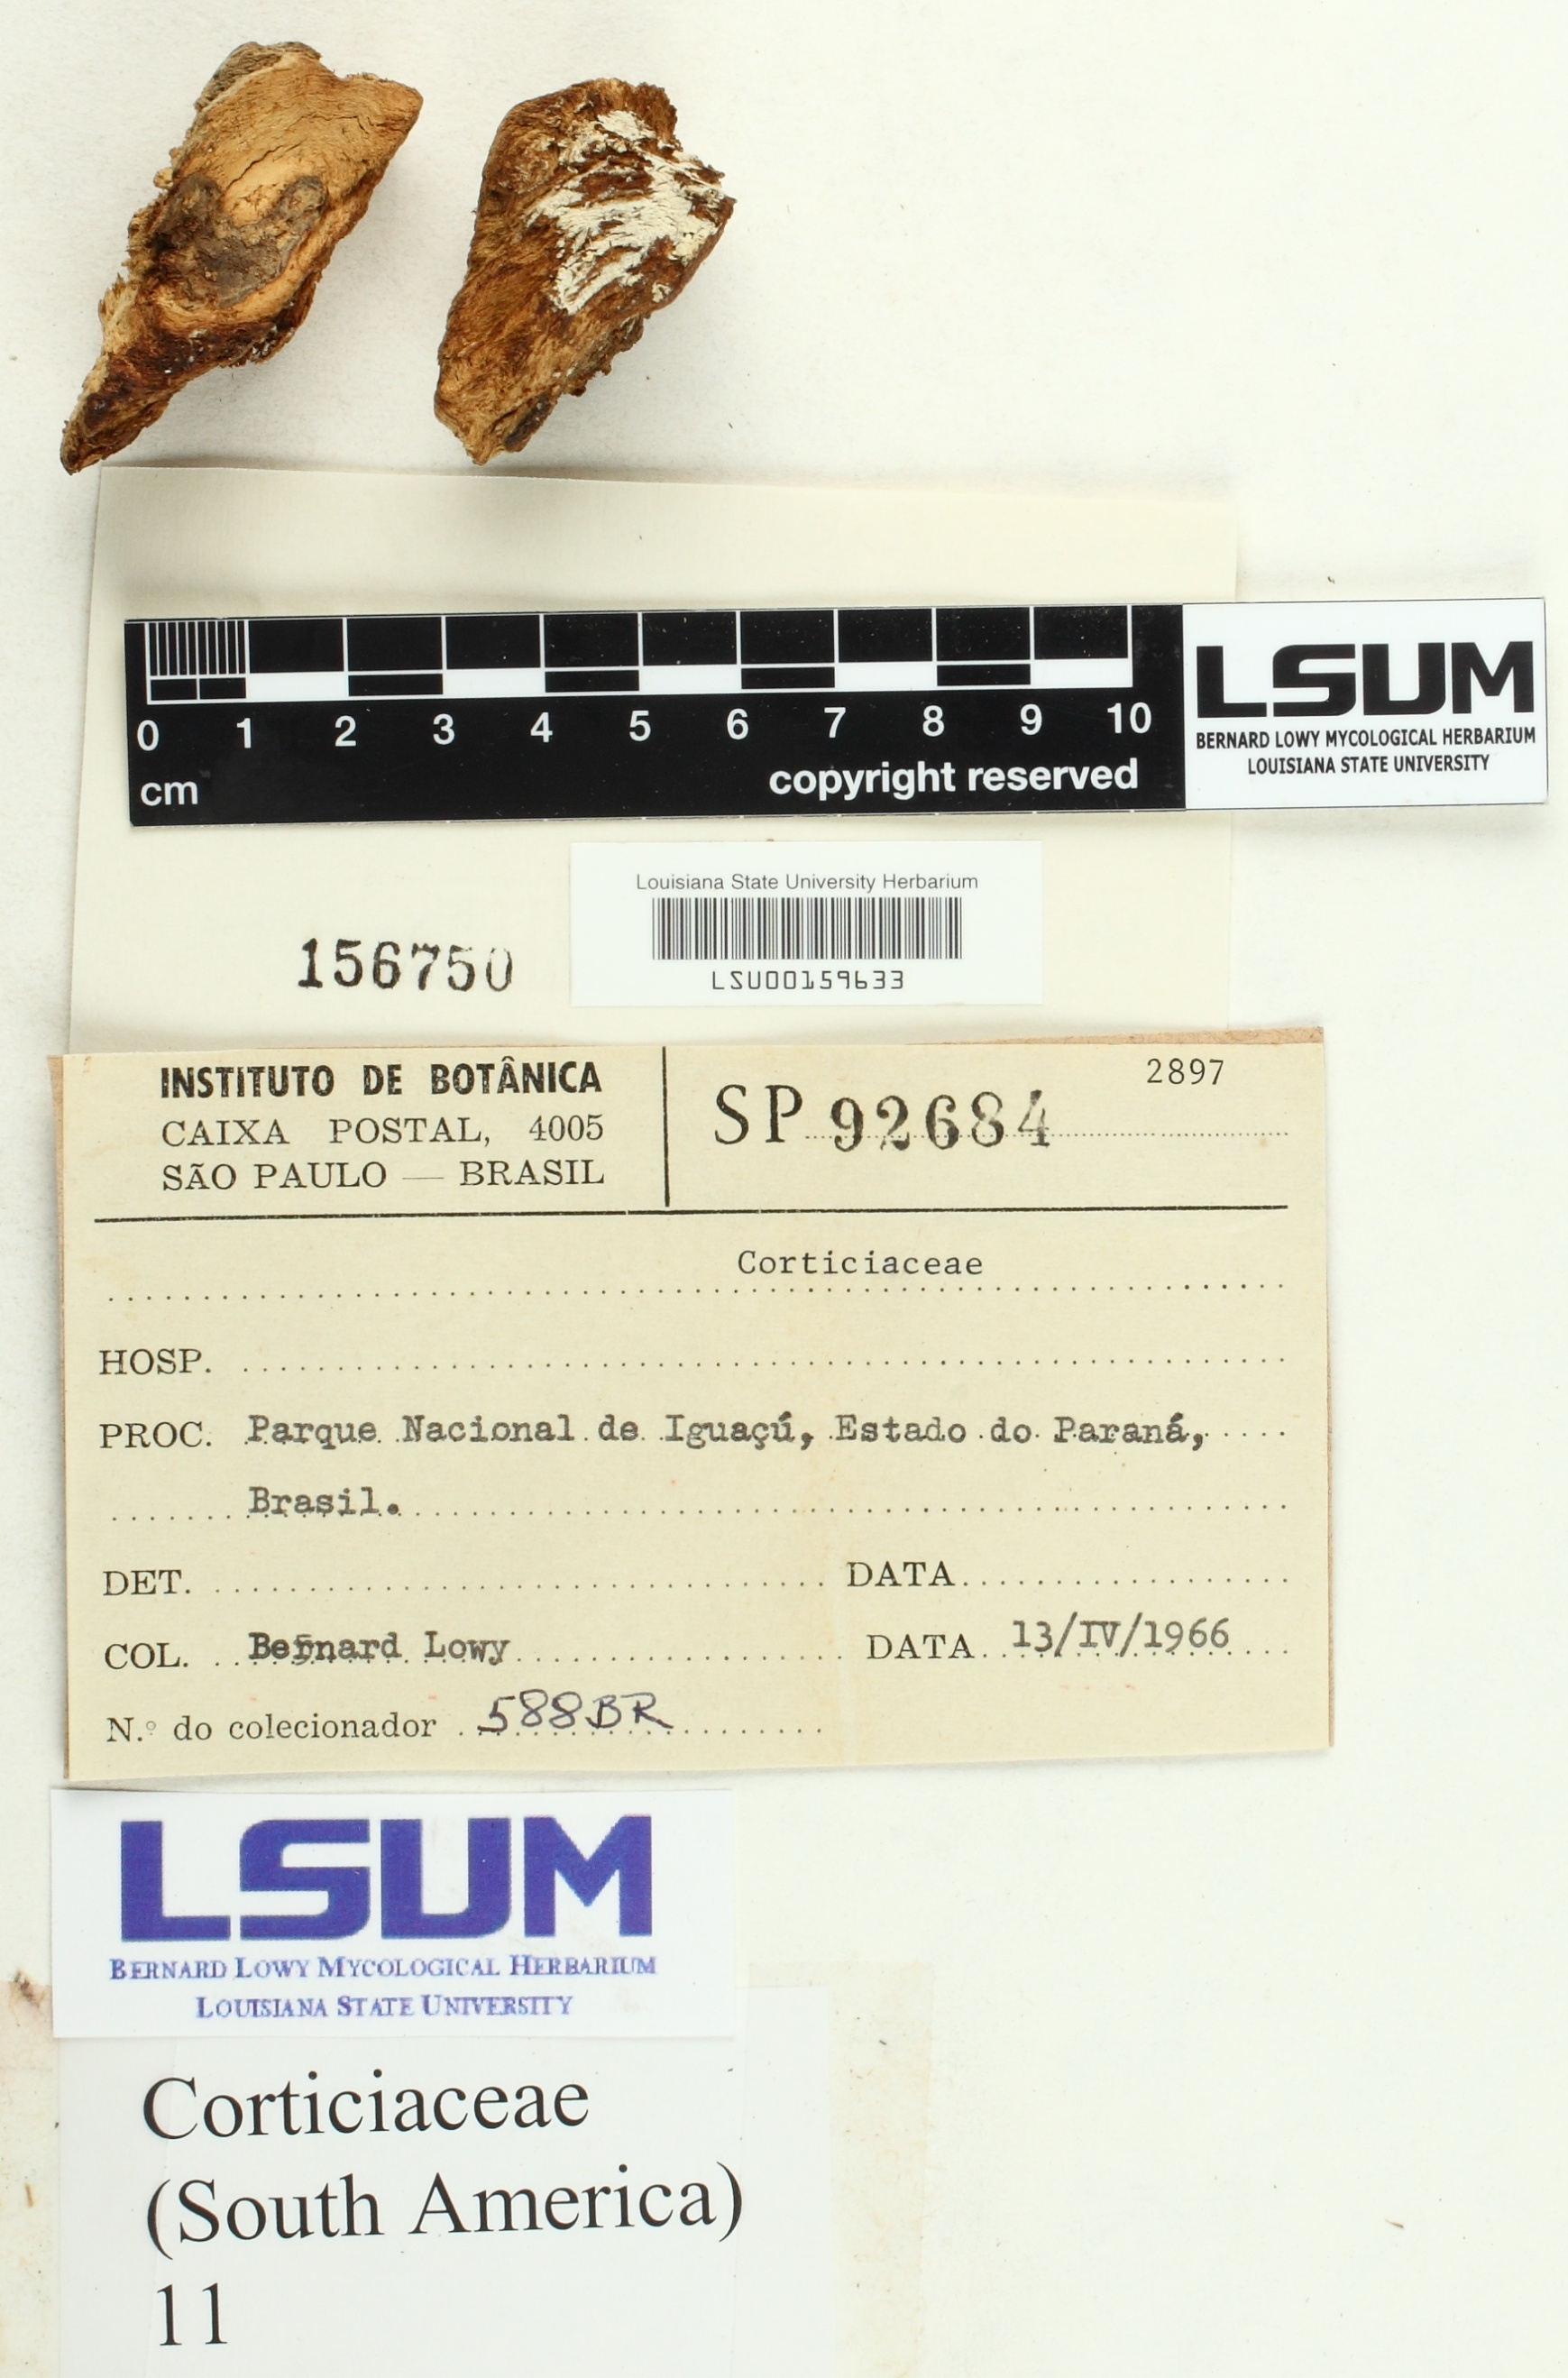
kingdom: Fungi
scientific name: Fungi
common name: Fungi
